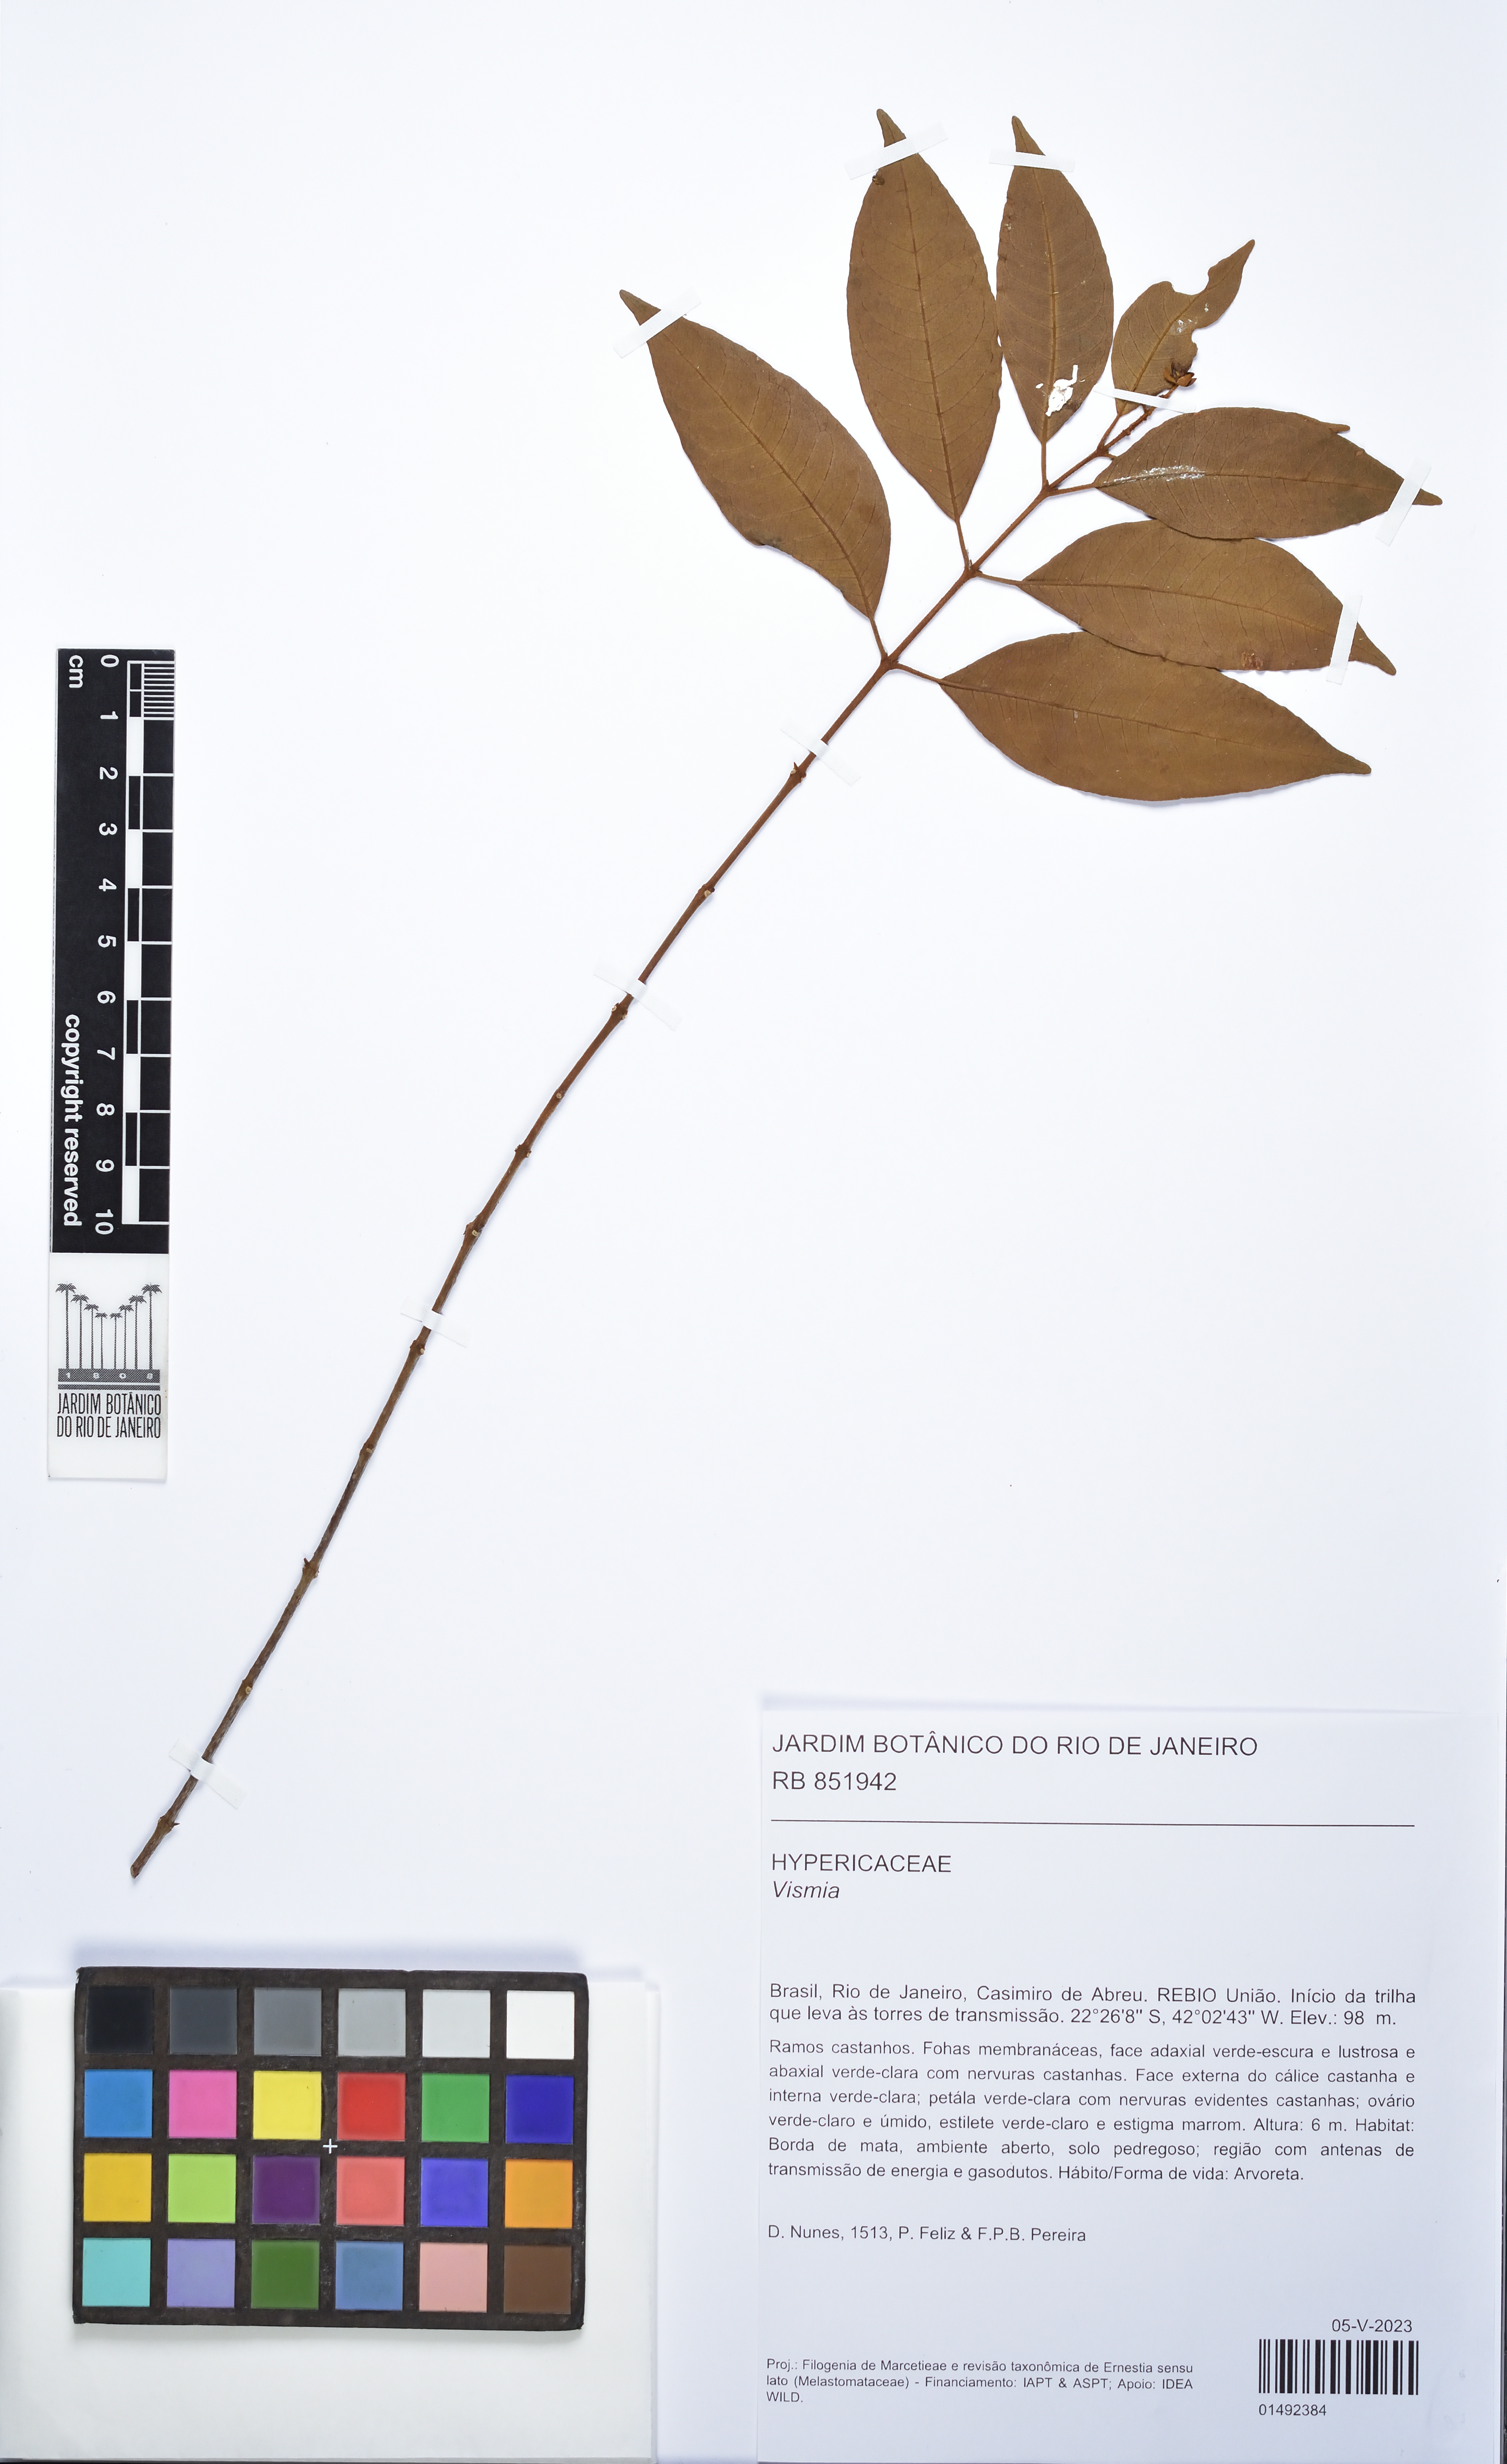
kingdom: Plantae
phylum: Tracheophyta
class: Magnoliopsida
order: Malpighiales
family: Hypericaceae
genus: Vismia
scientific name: Vismia
